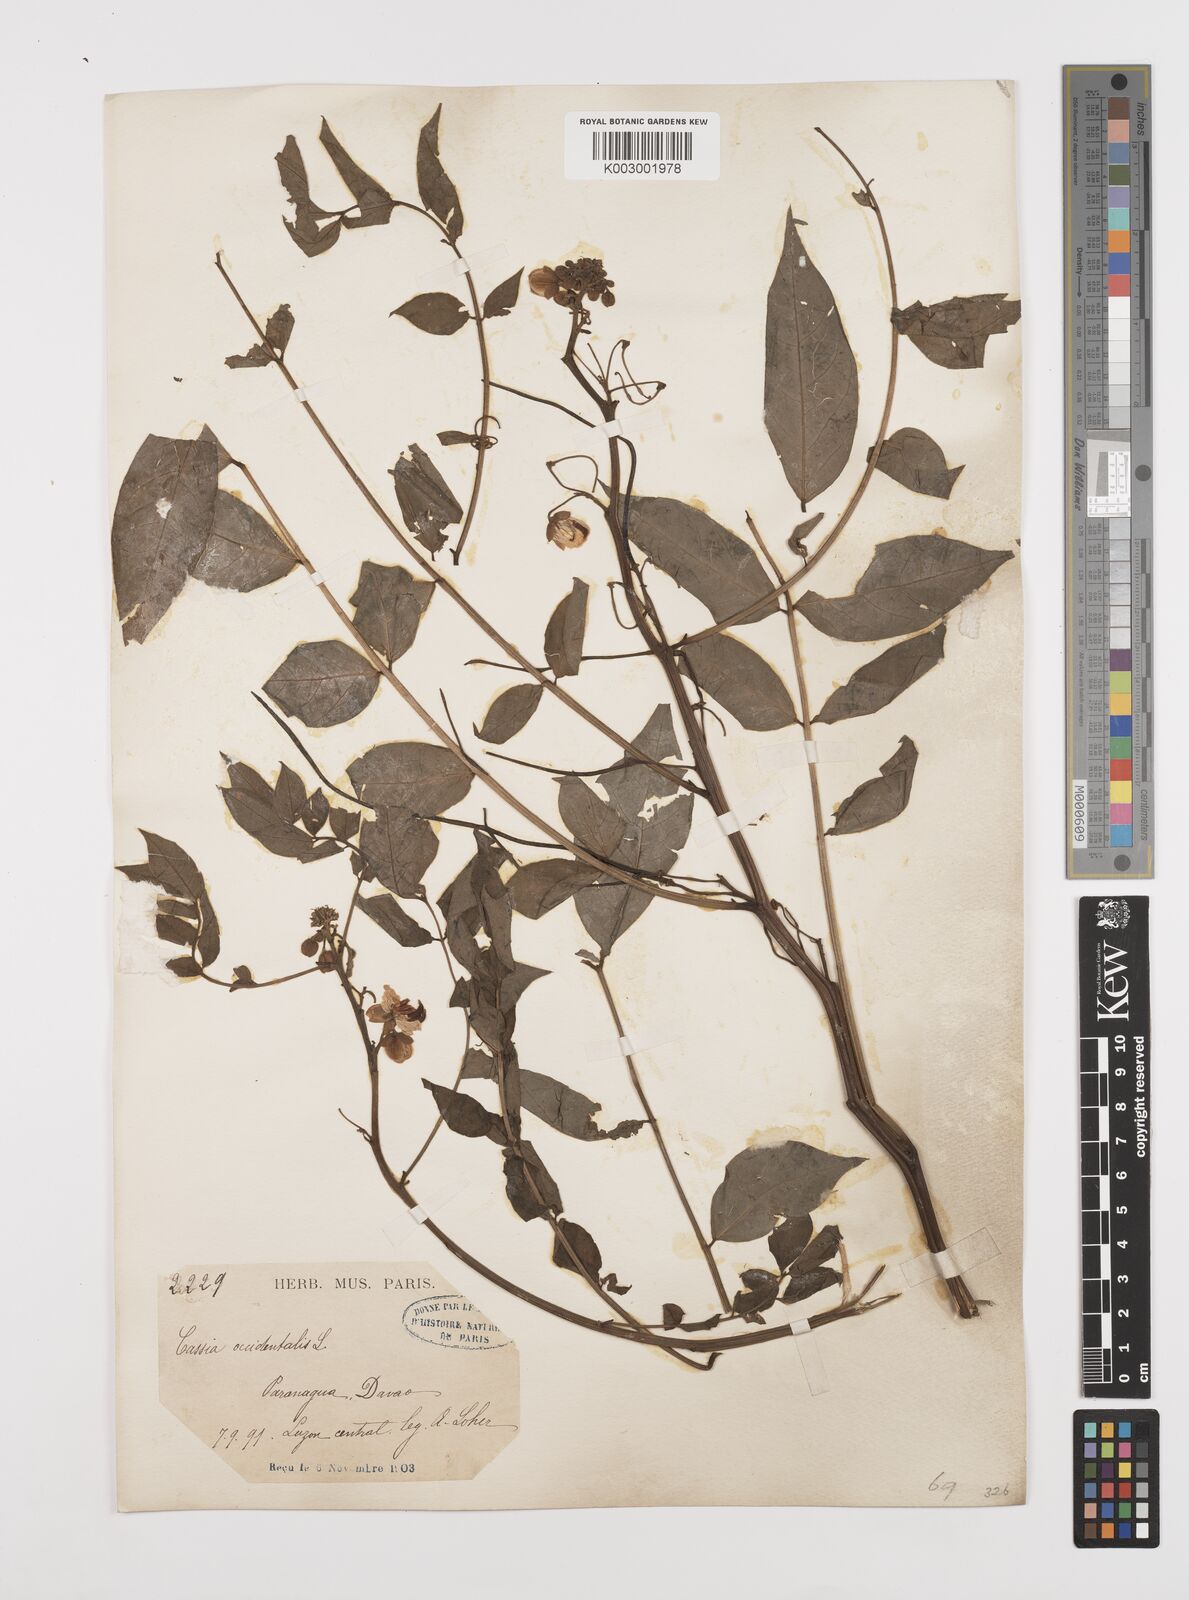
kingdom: Plantae
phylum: Tracheophyta
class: Magnoliopsida
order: Fabales
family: Fabaceae
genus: Senna
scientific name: Senna occidentalis
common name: Septicweed
